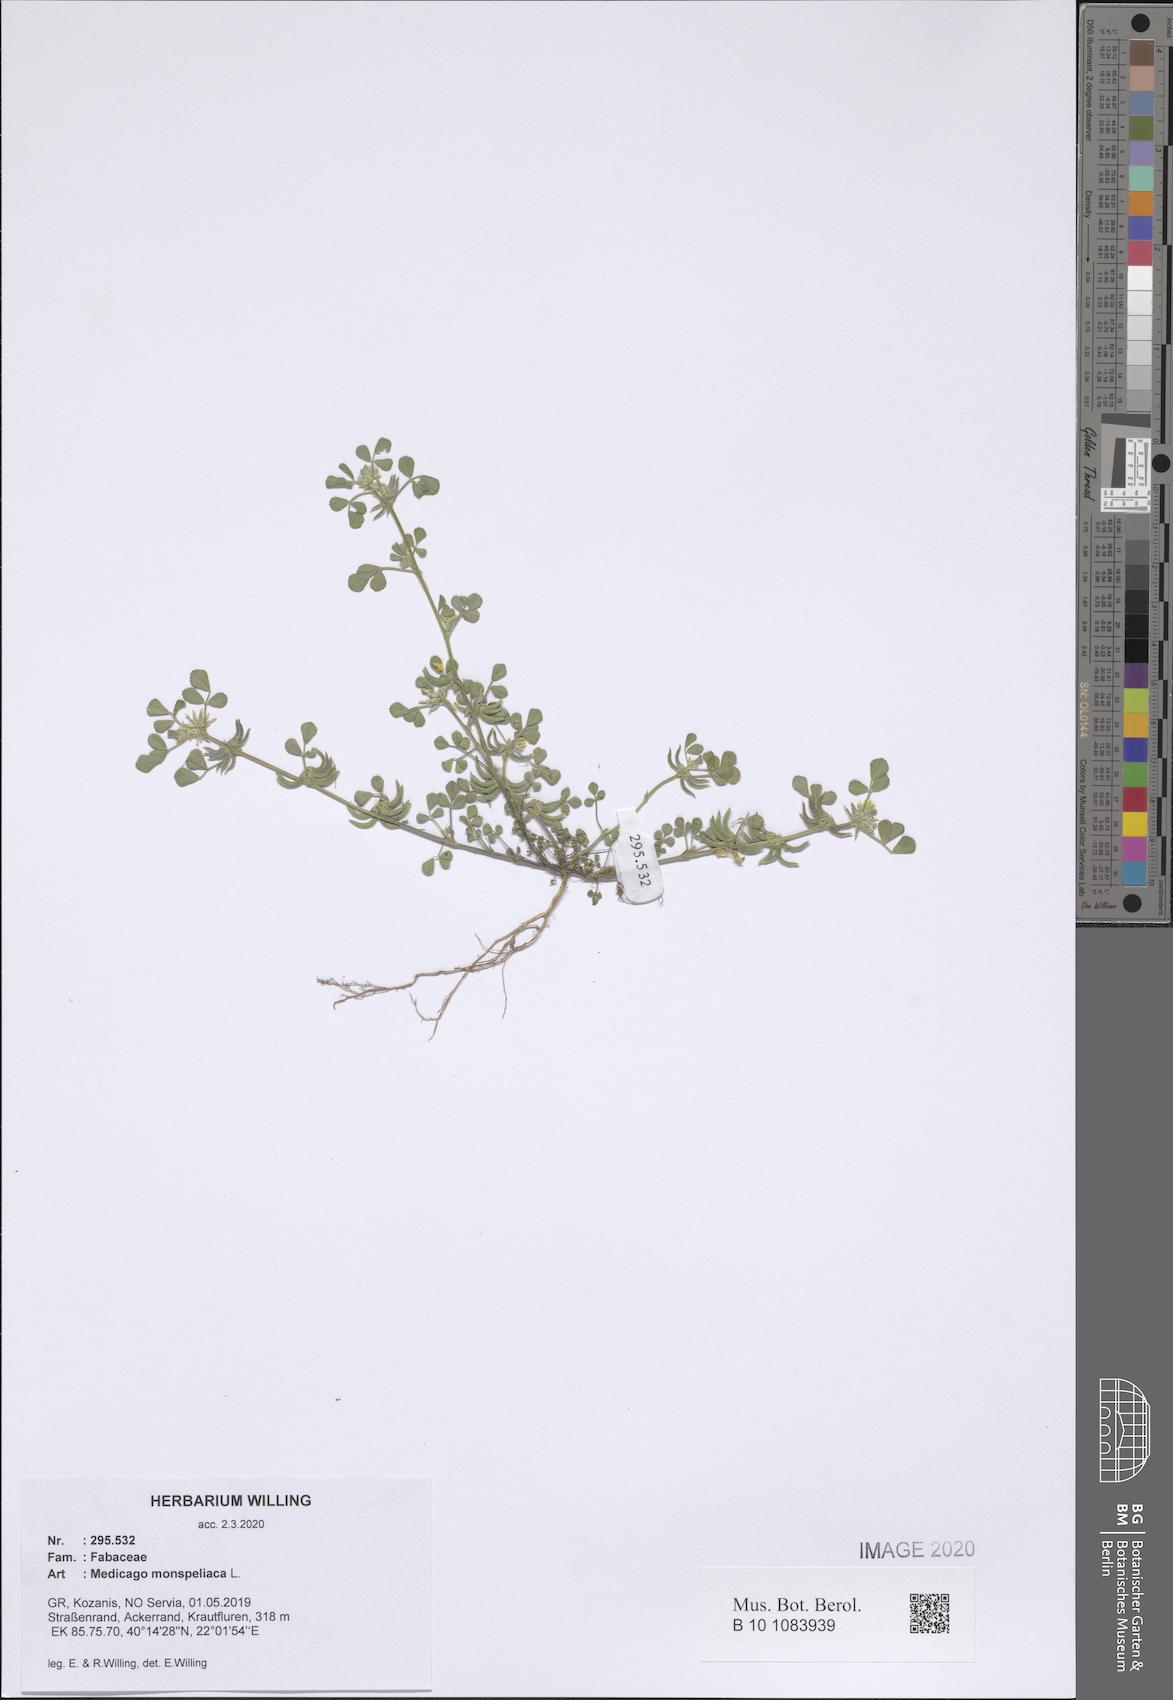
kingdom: Plantae
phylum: Tracheophyta
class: Magnoliopsida
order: Fabales
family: Fabaceae
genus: Medicago
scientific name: Medicago monspeliaca
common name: Hairy medick
